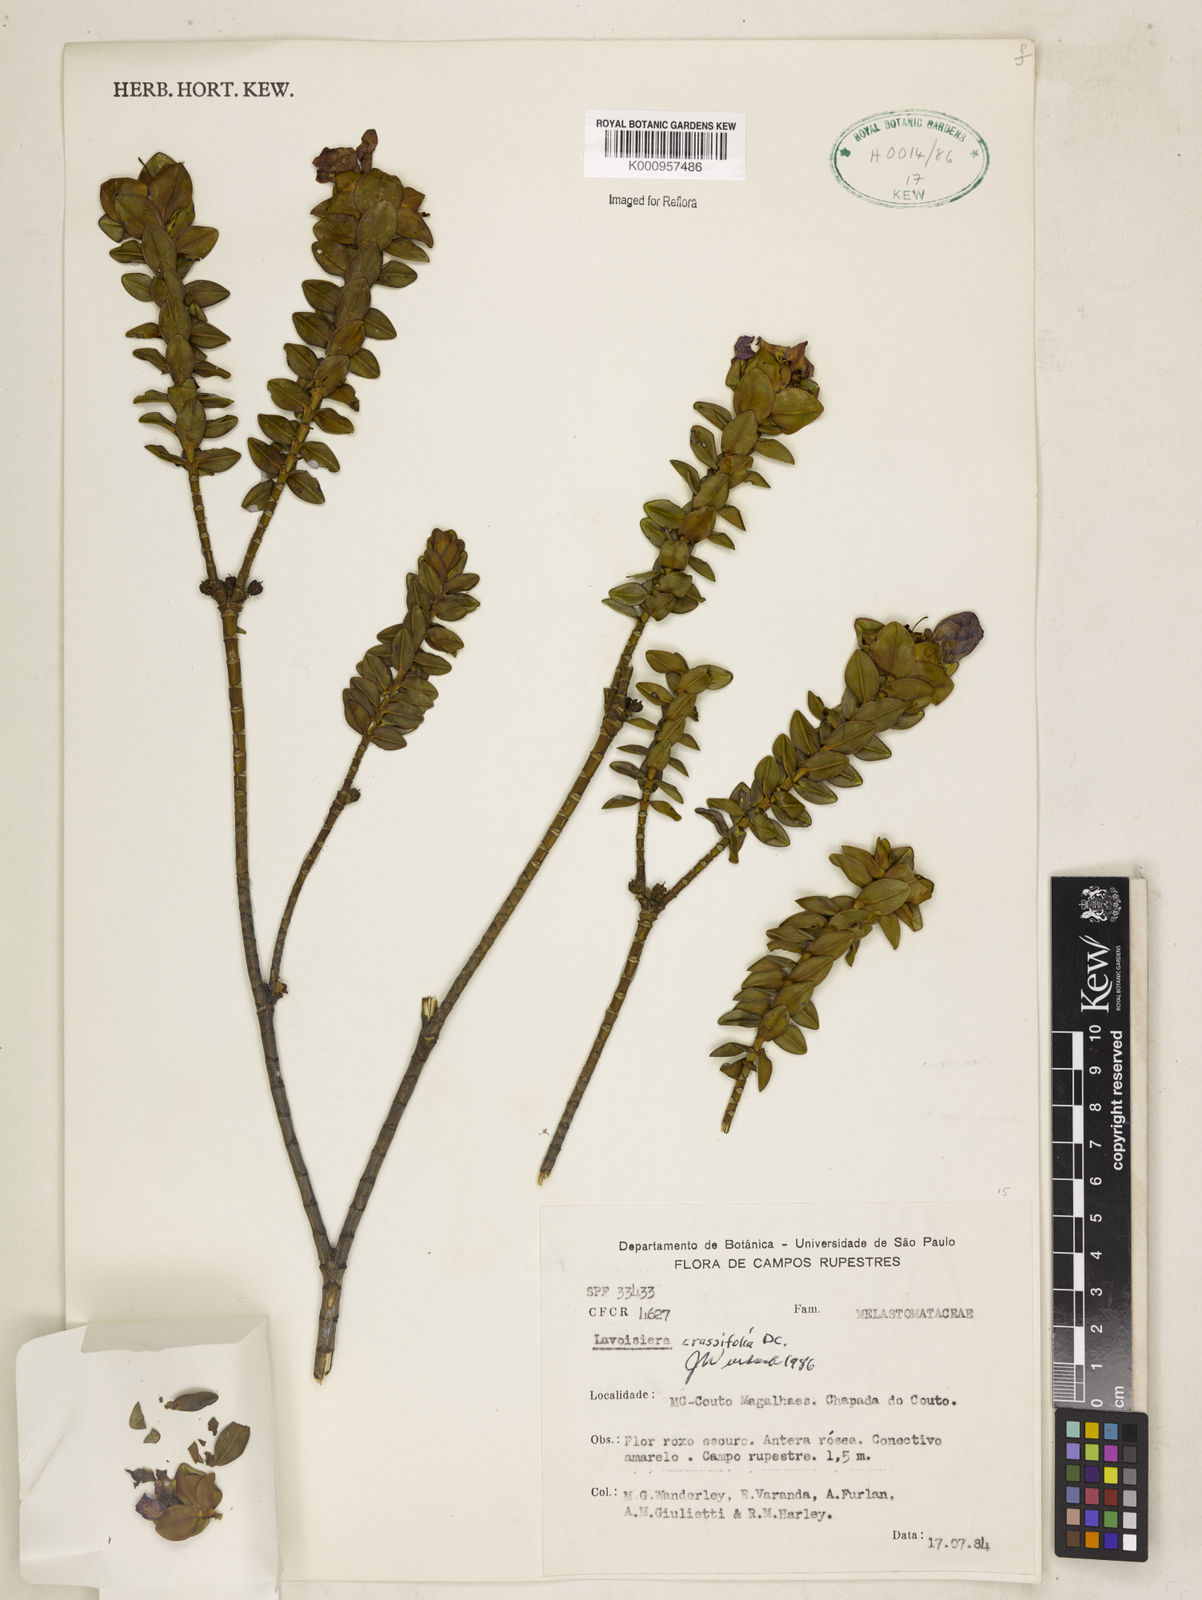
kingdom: Plantae
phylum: Tracheophyta
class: Magnoliopsida
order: Myrtales
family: Melastomataceae
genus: Microlicia
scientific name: Microlicia crassifolia
